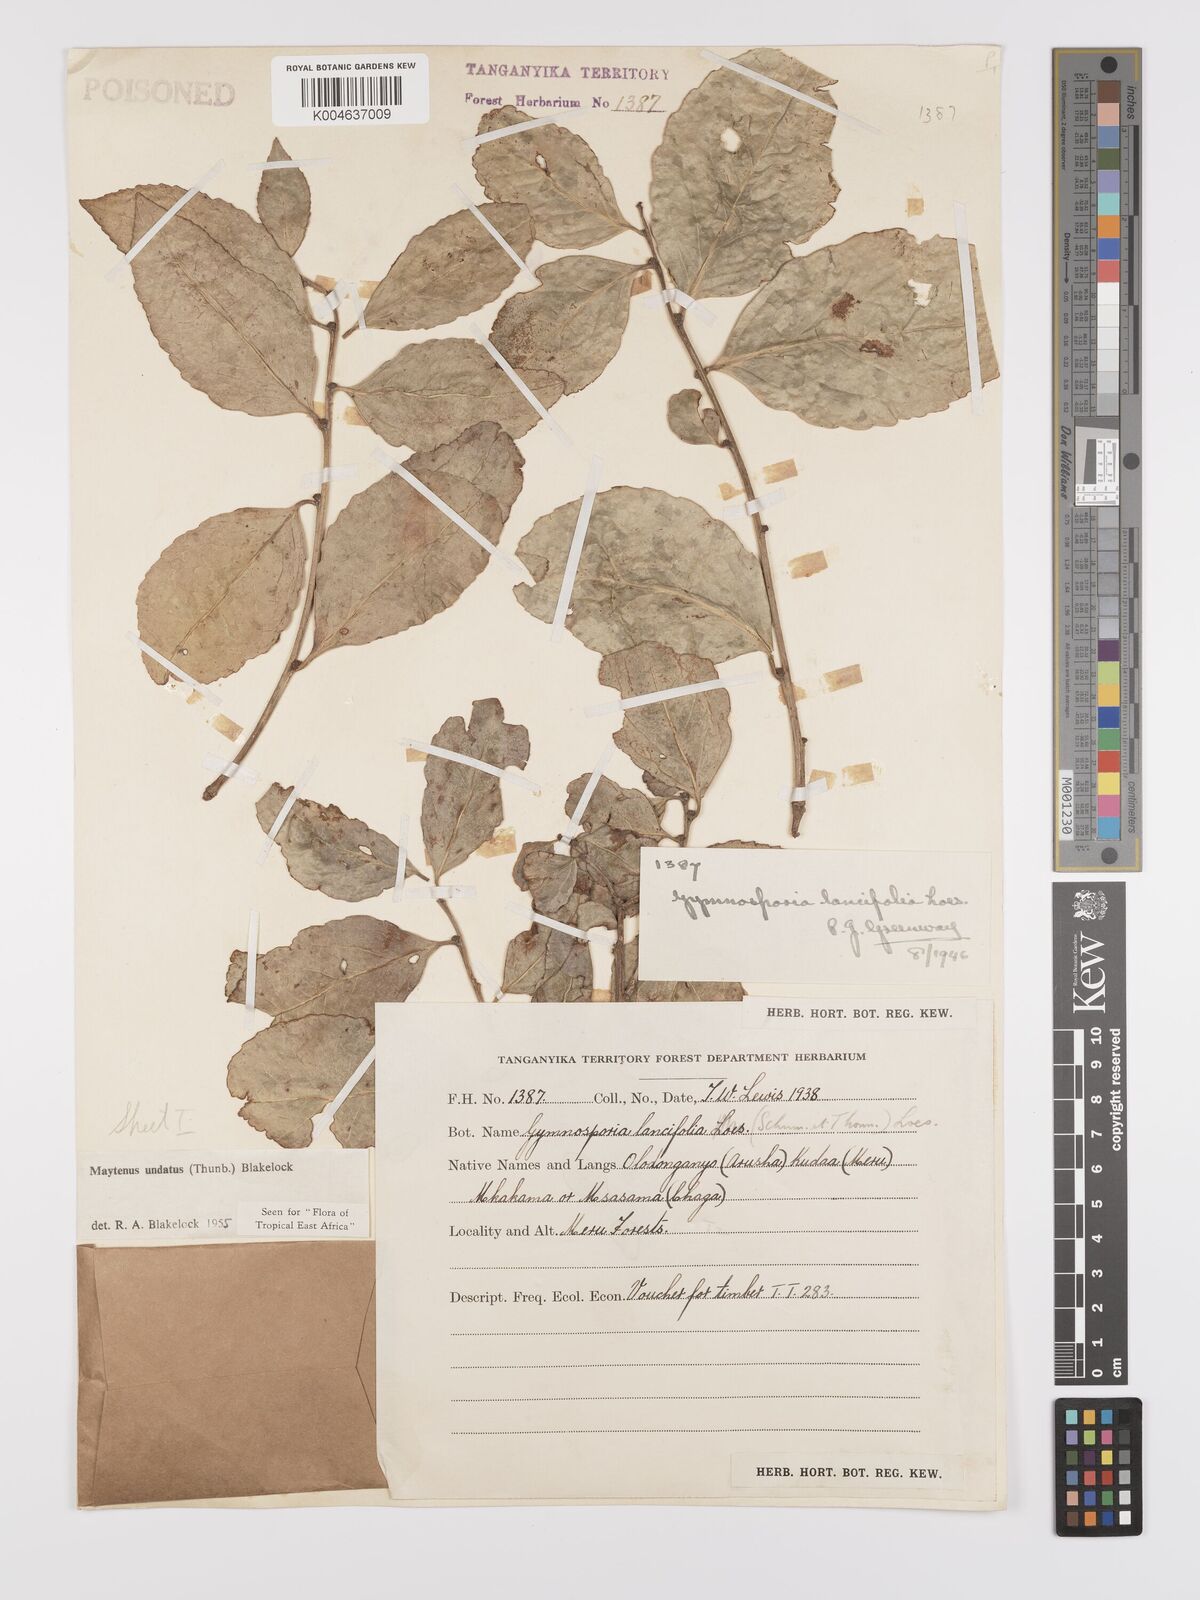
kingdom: Plantae
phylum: Tracheophyta
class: Magnoliopsida
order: Celastrales
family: Celastraceae
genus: Gymnosporia
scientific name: Gymnosporia undata
